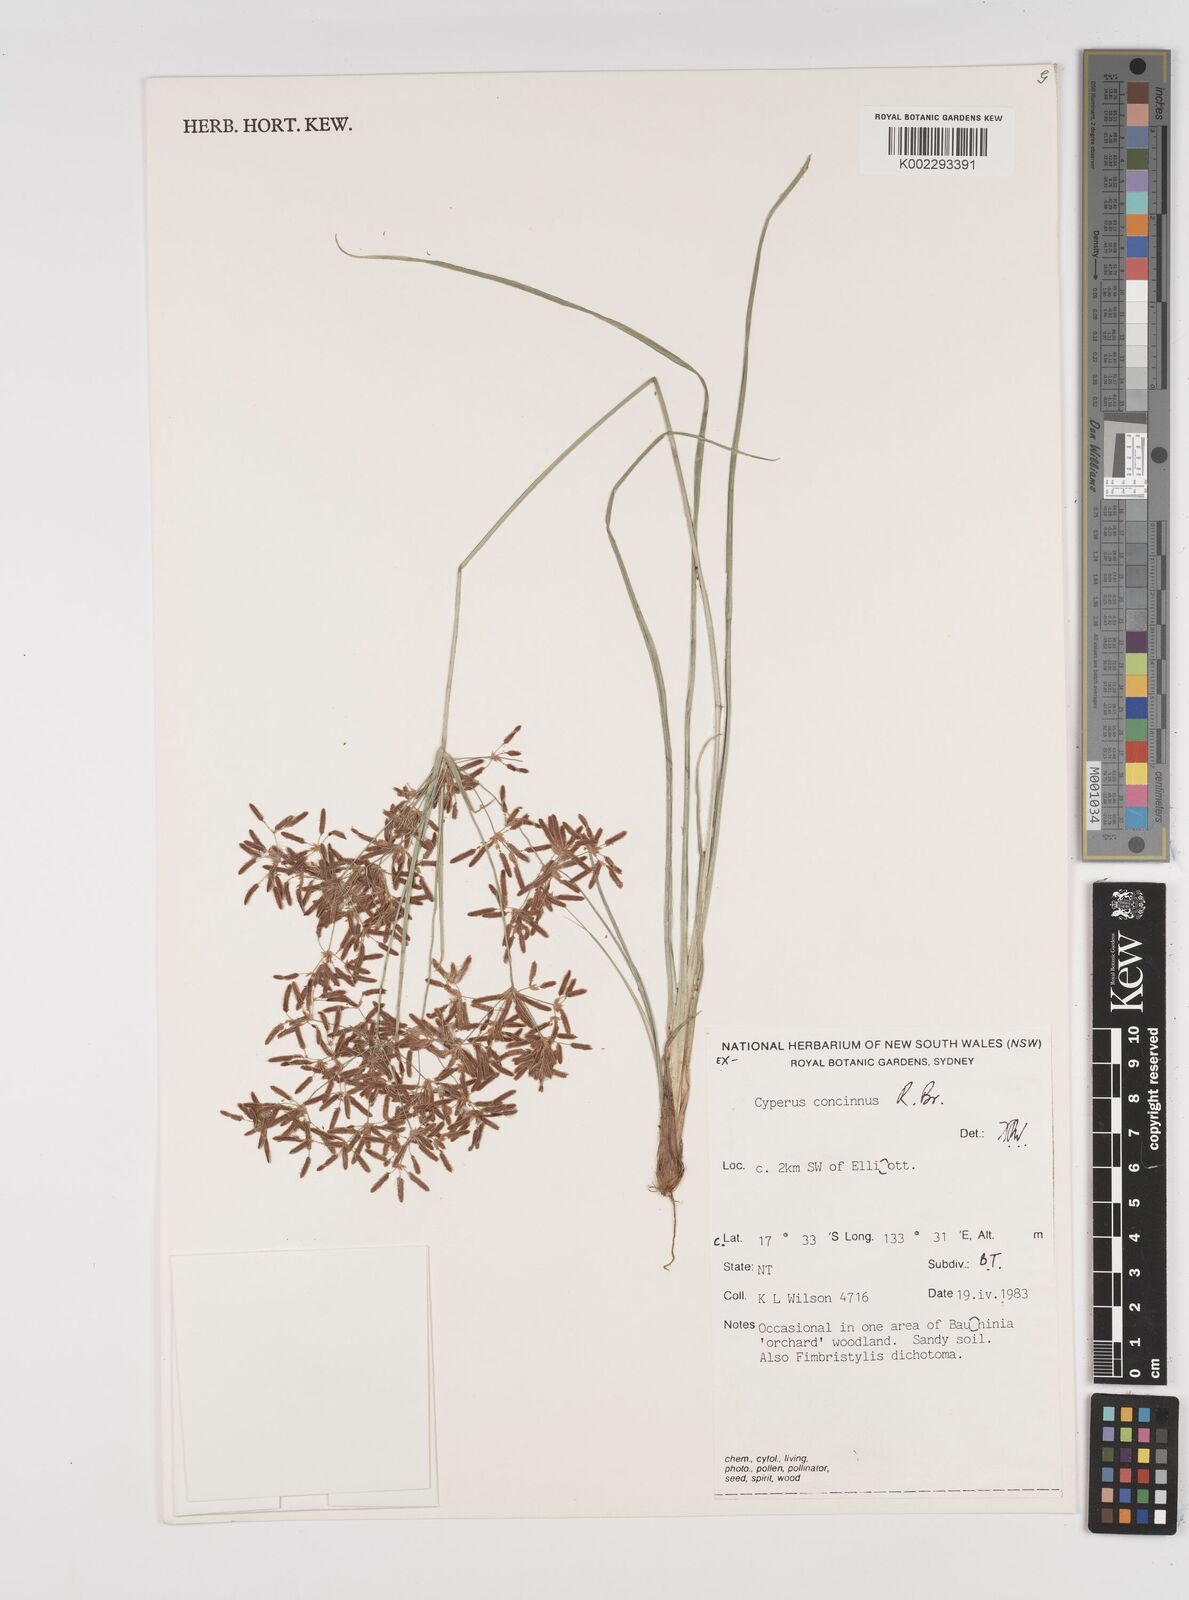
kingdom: Plantae
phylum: Tracheophyta
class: Liliopsida
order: Poales
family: Cyperaceae
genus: Cyperus
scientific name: Cyperus concinnus
